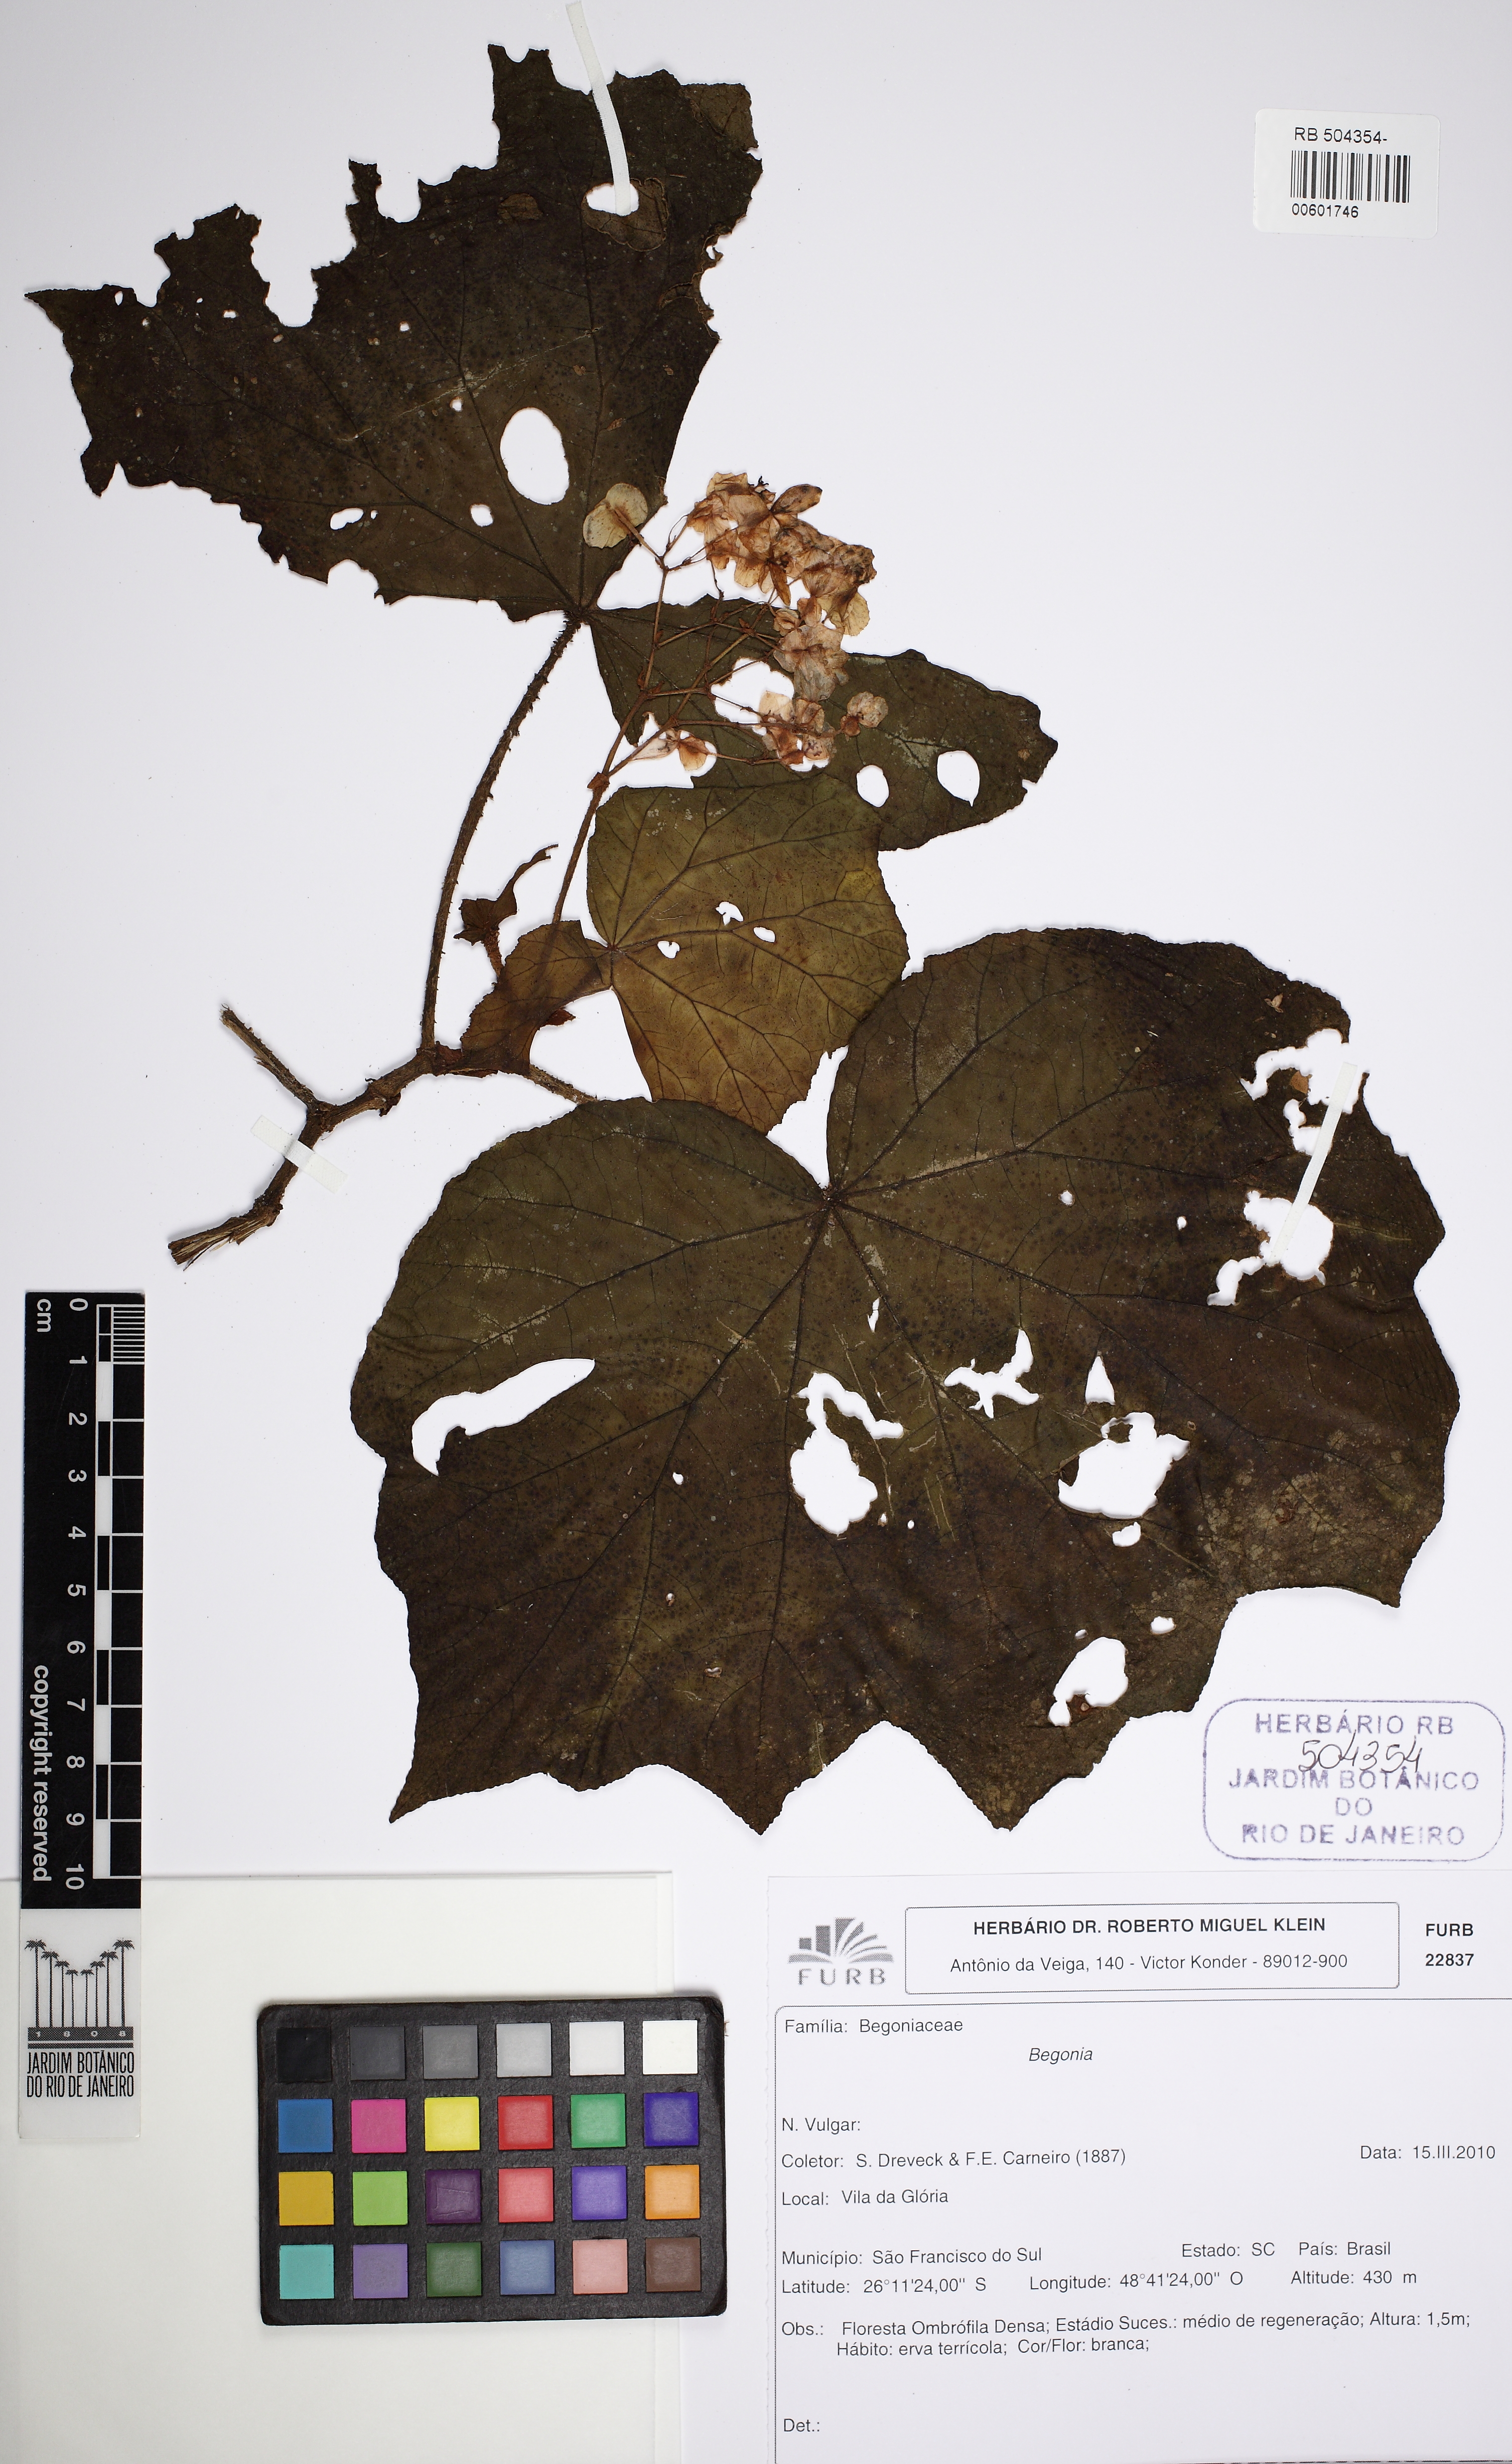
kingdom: Plantae
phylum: Tracheophyta
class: Magnoliopsida
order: Cucurbitales
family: Begoniaceae
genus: Begonia
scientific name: Begonia paleata
